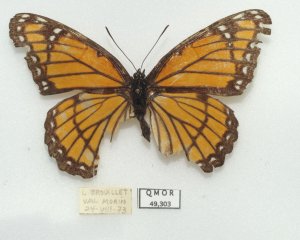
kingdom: Animalia
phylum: Arthropoda
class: Insecta
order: Lepidoptera
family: Nymphalidae
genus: Limenitis
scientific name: Limenitis archippus
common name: Viceroy
